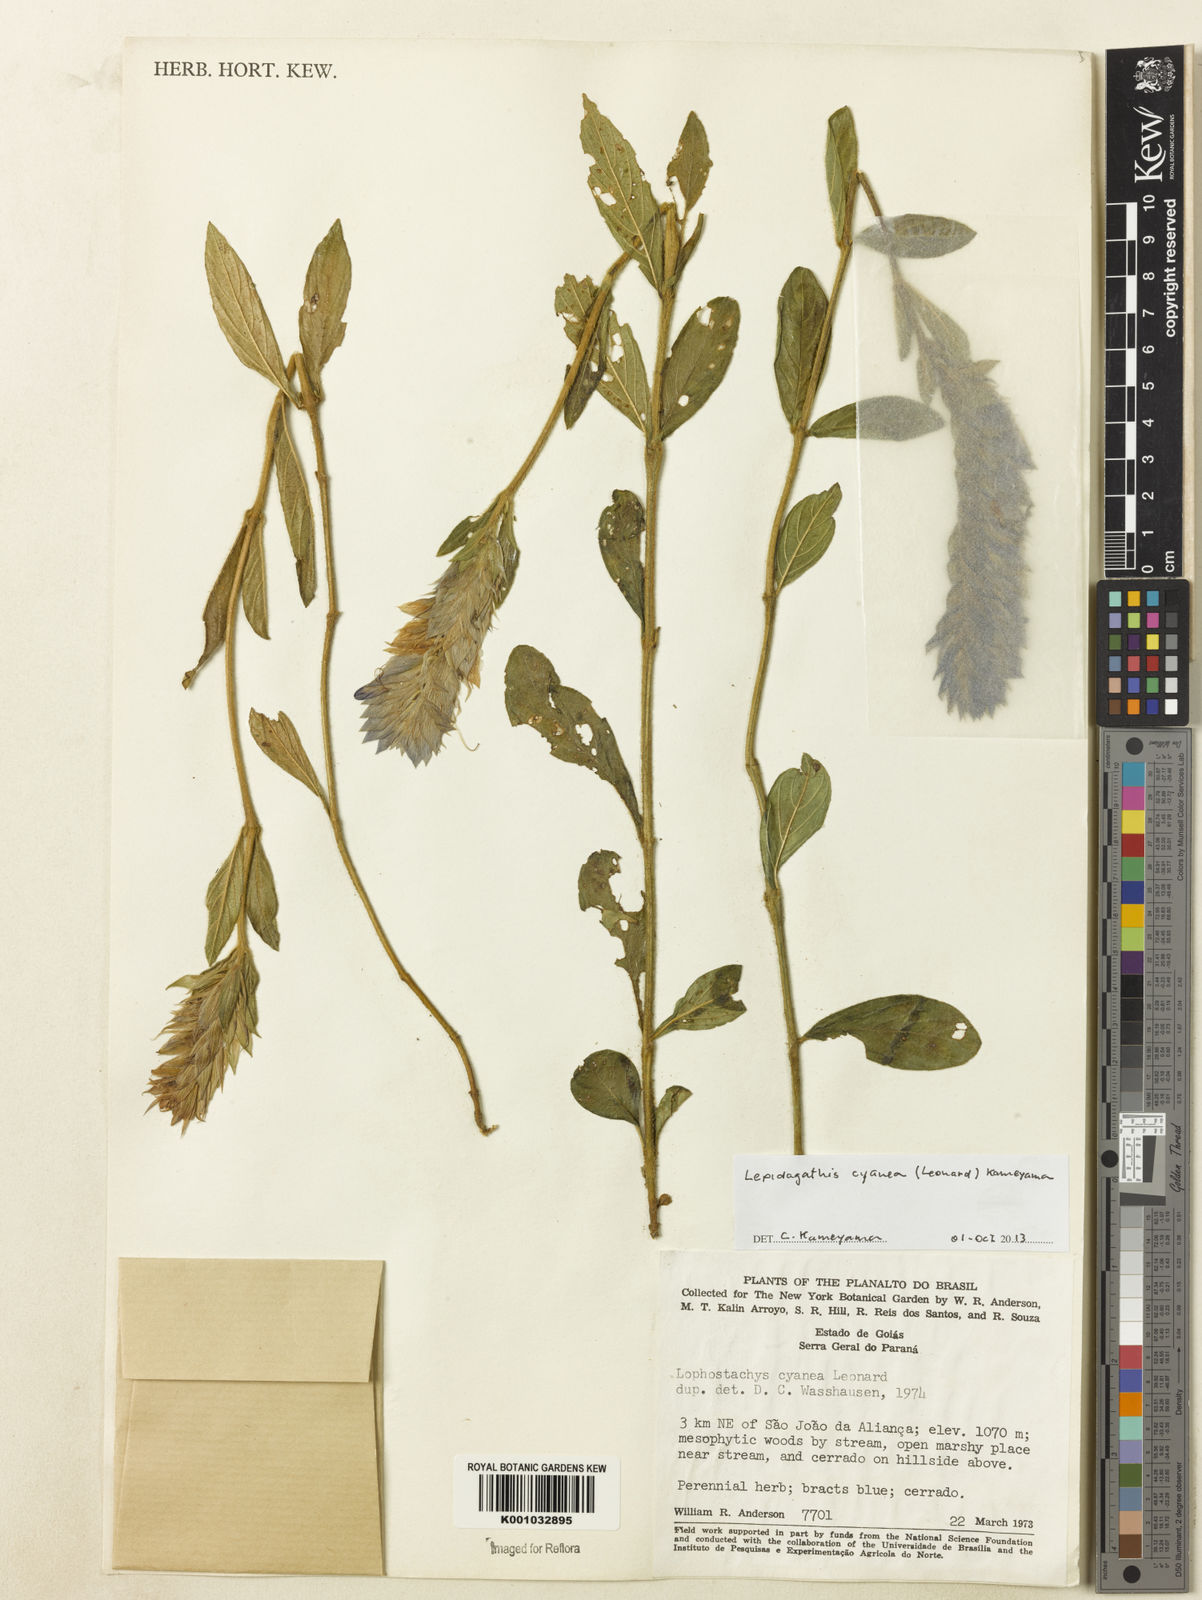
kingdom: Plantae
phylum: Tracheophyta
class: Magnoliopsida
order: Lamiales
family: Acanthaceae
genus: Lepidagathis
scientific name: Lepidagathis cyanea
